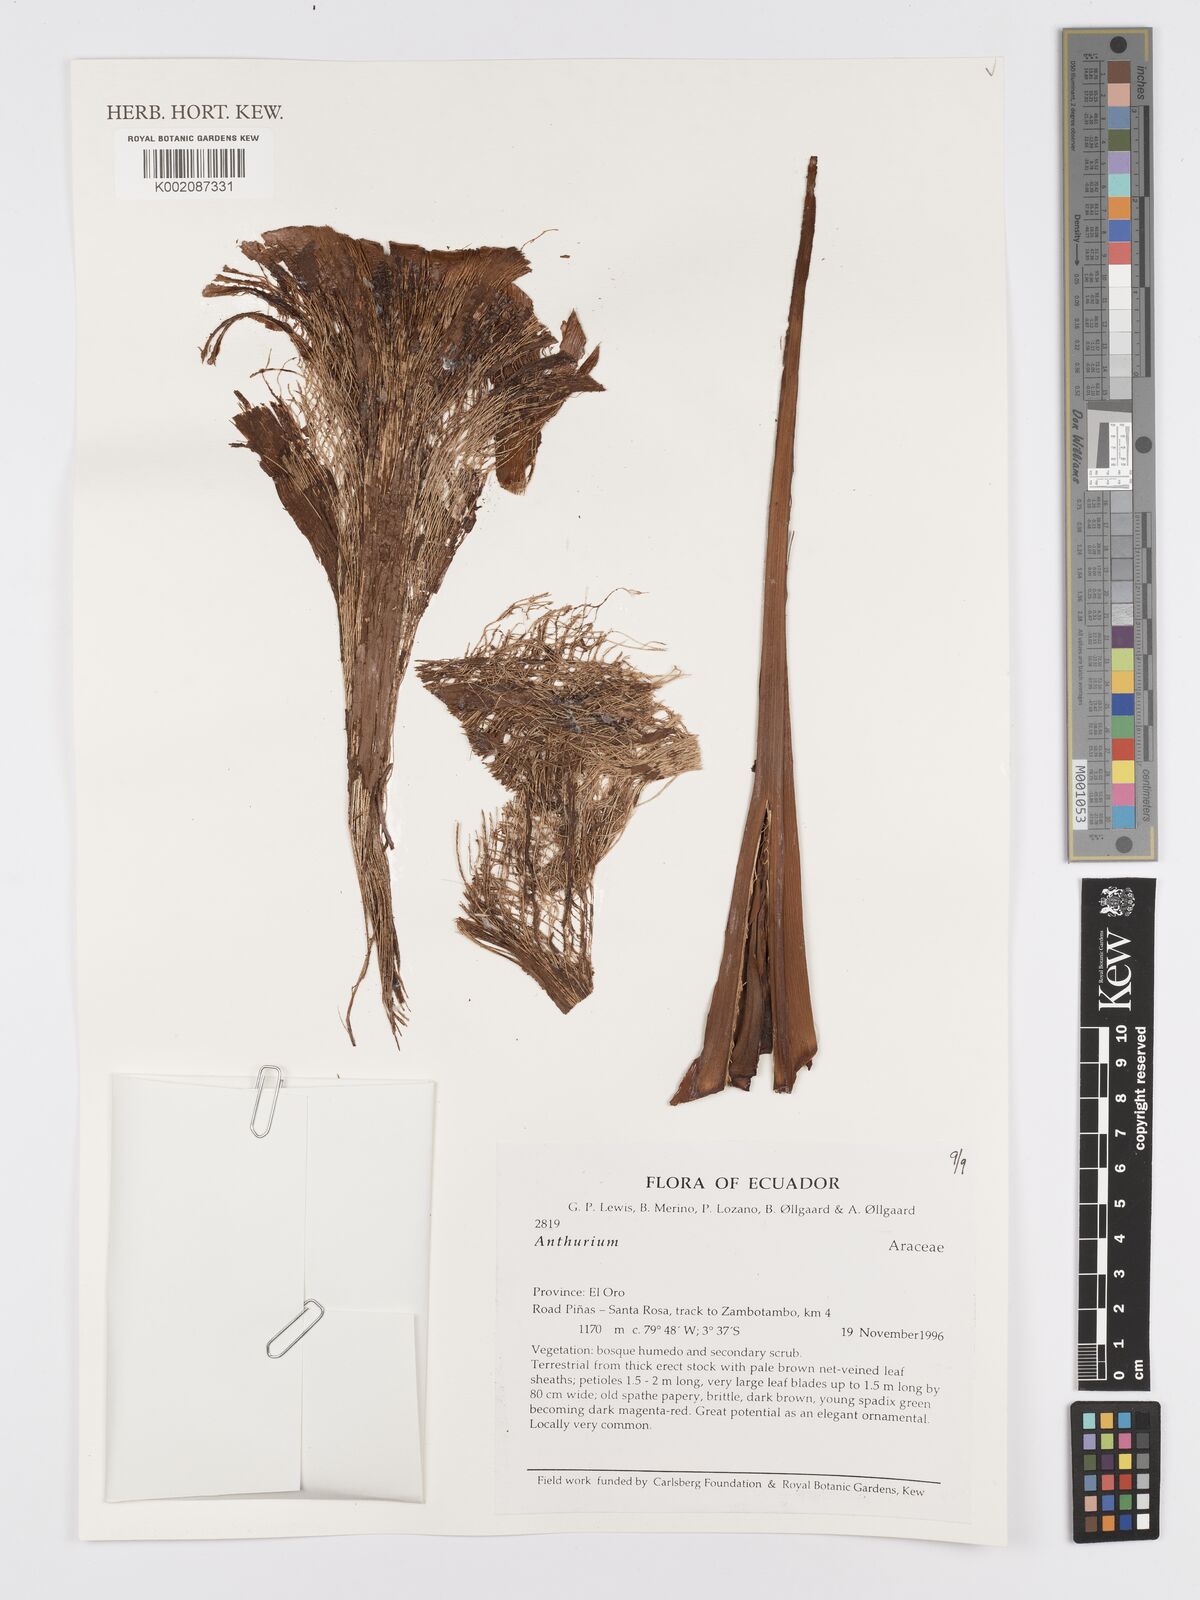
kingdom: Plantae
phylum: Tracheophyta
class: Liliopsida
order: Alismatales
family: Araceae
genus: Anthurium
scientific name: Anthurium
